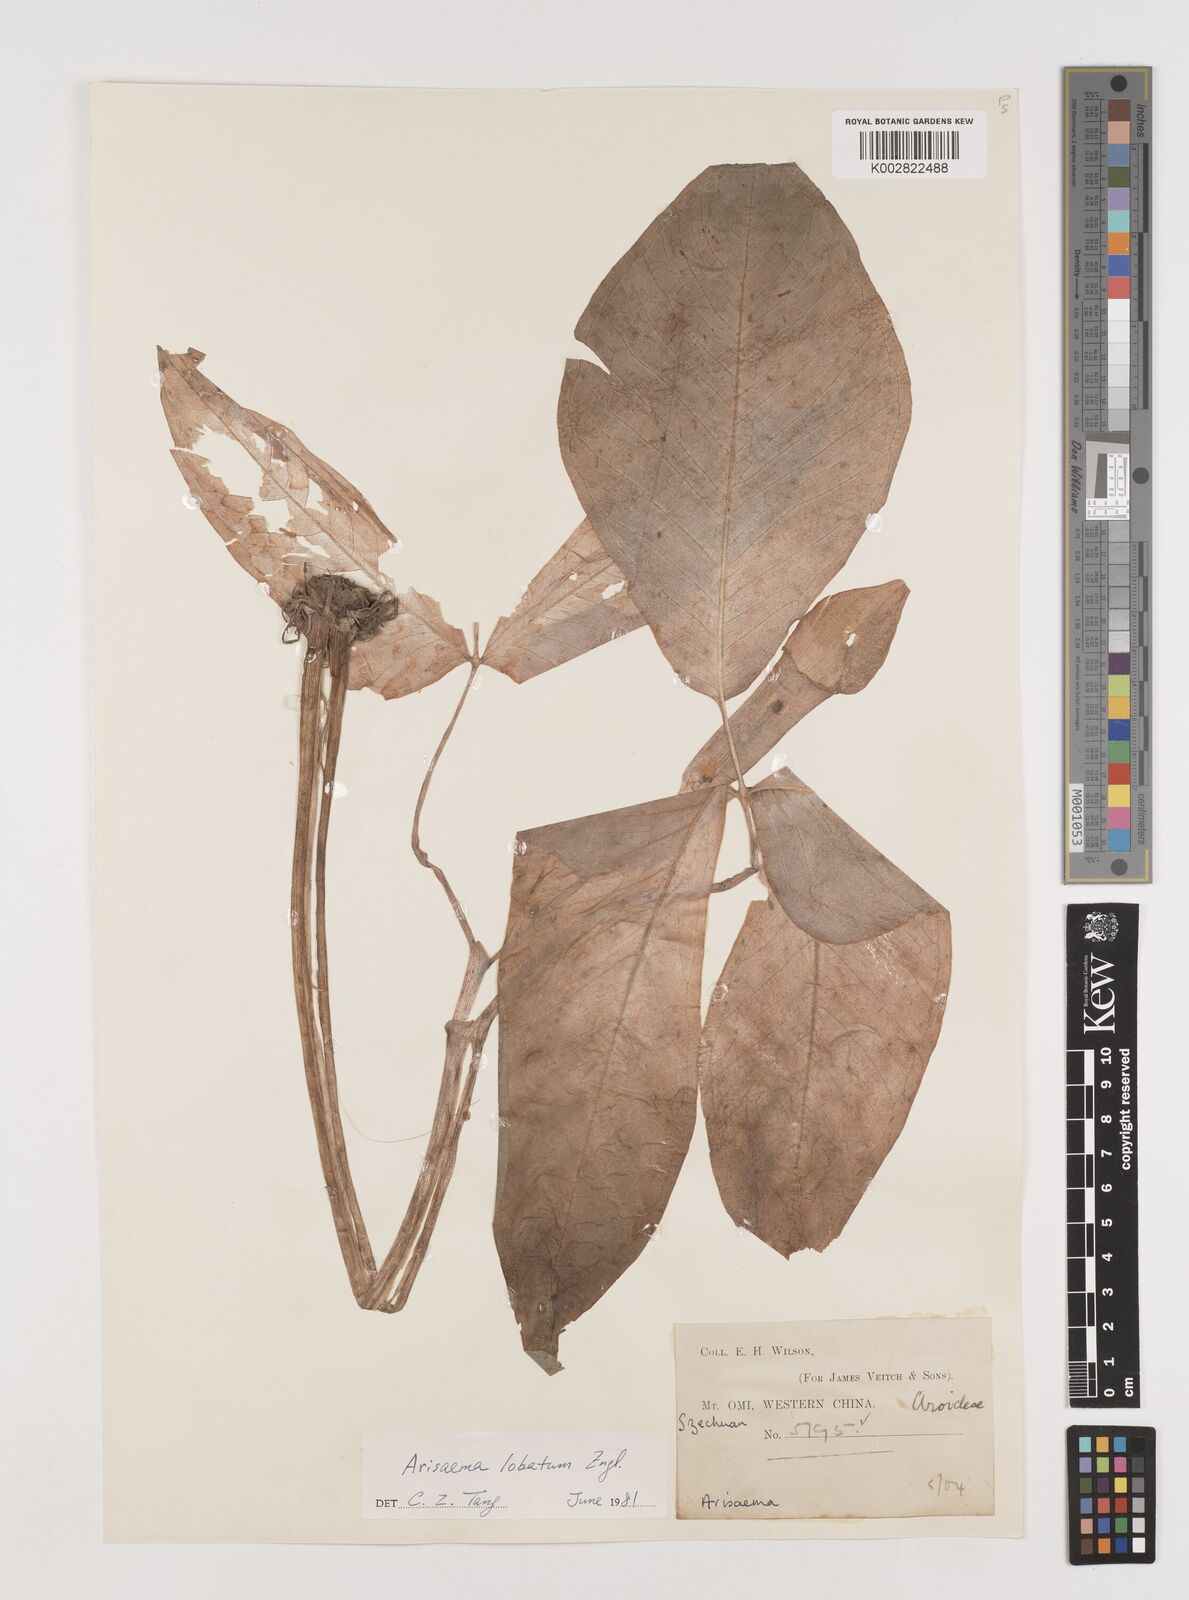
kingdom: Plantae
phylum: Tracheophyta
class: Liliopsida
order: Alismatales
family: Araceae
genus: Arisaema
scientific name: Arisaema lobatum
